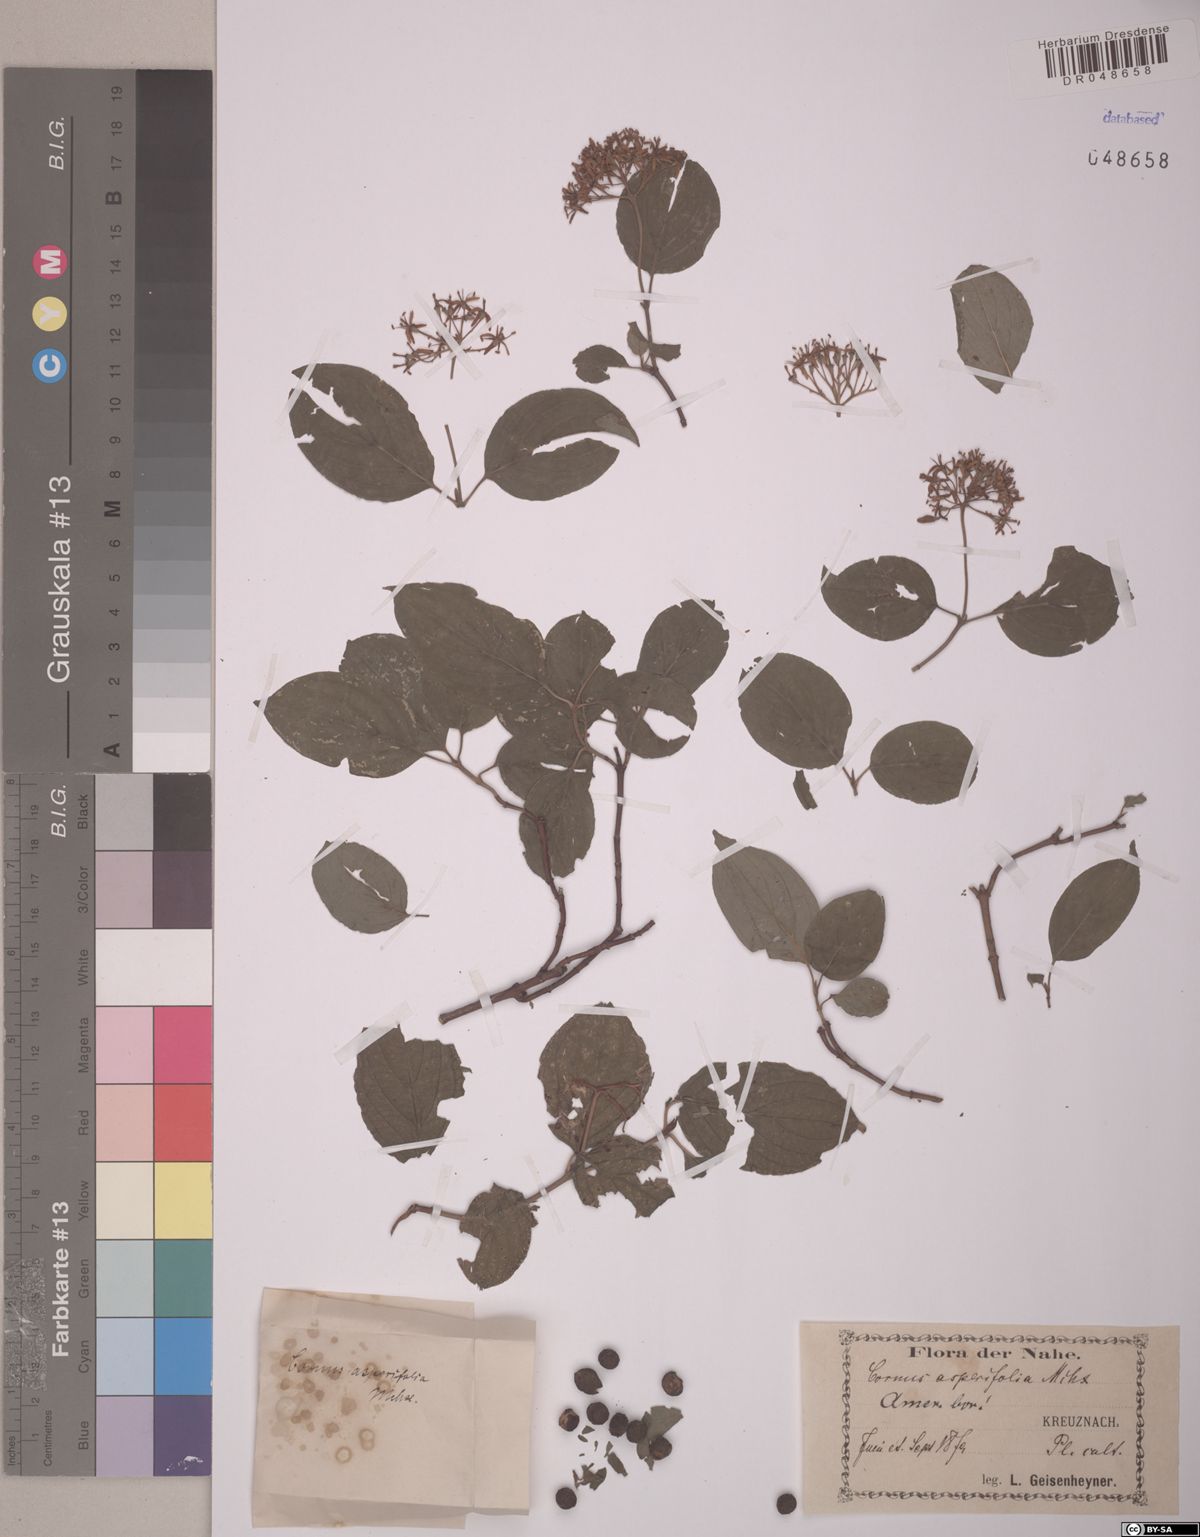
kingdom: Plantae
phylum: Tracheophyta
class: Magnoliopsida
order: Cornales
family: Cornaceae
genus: Cornus
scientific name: Cornus asperifolia
